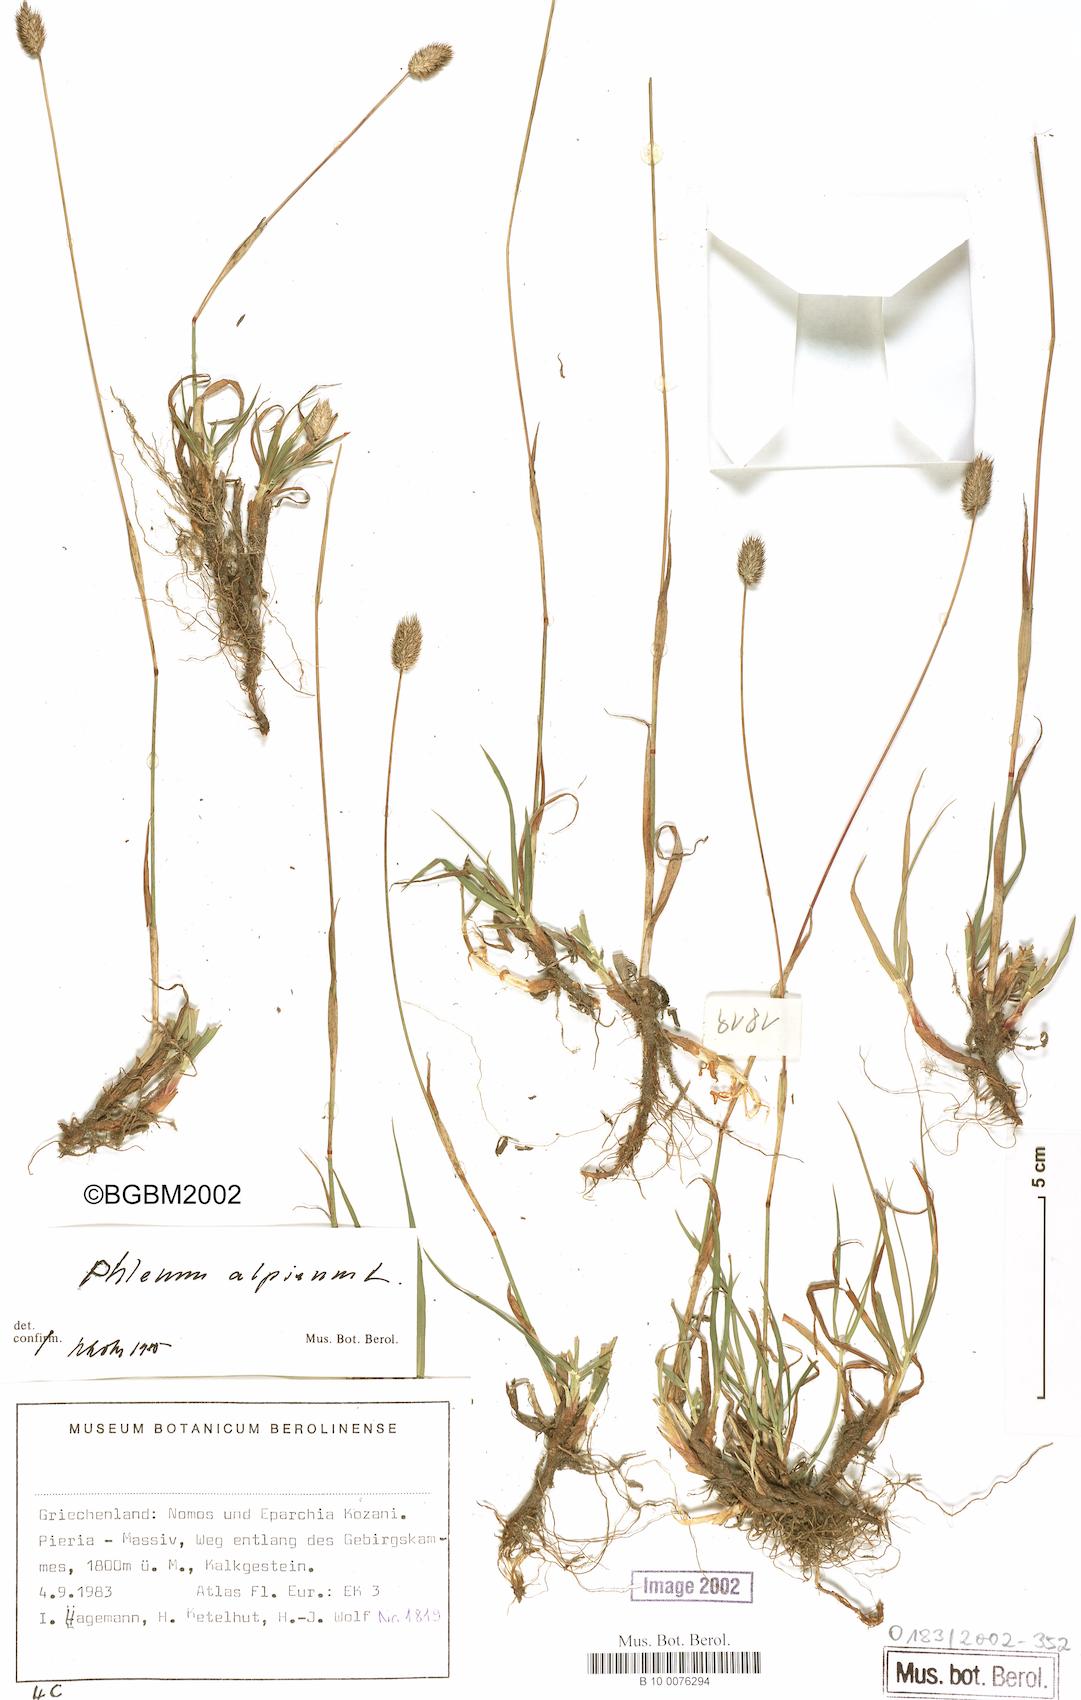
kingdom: Plantae
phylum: Tracheophyta
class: Liliopsida
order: Poales
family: Poaceae
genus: Phleum
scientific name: Phleum alpinum
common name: Alpine cat's-tail
